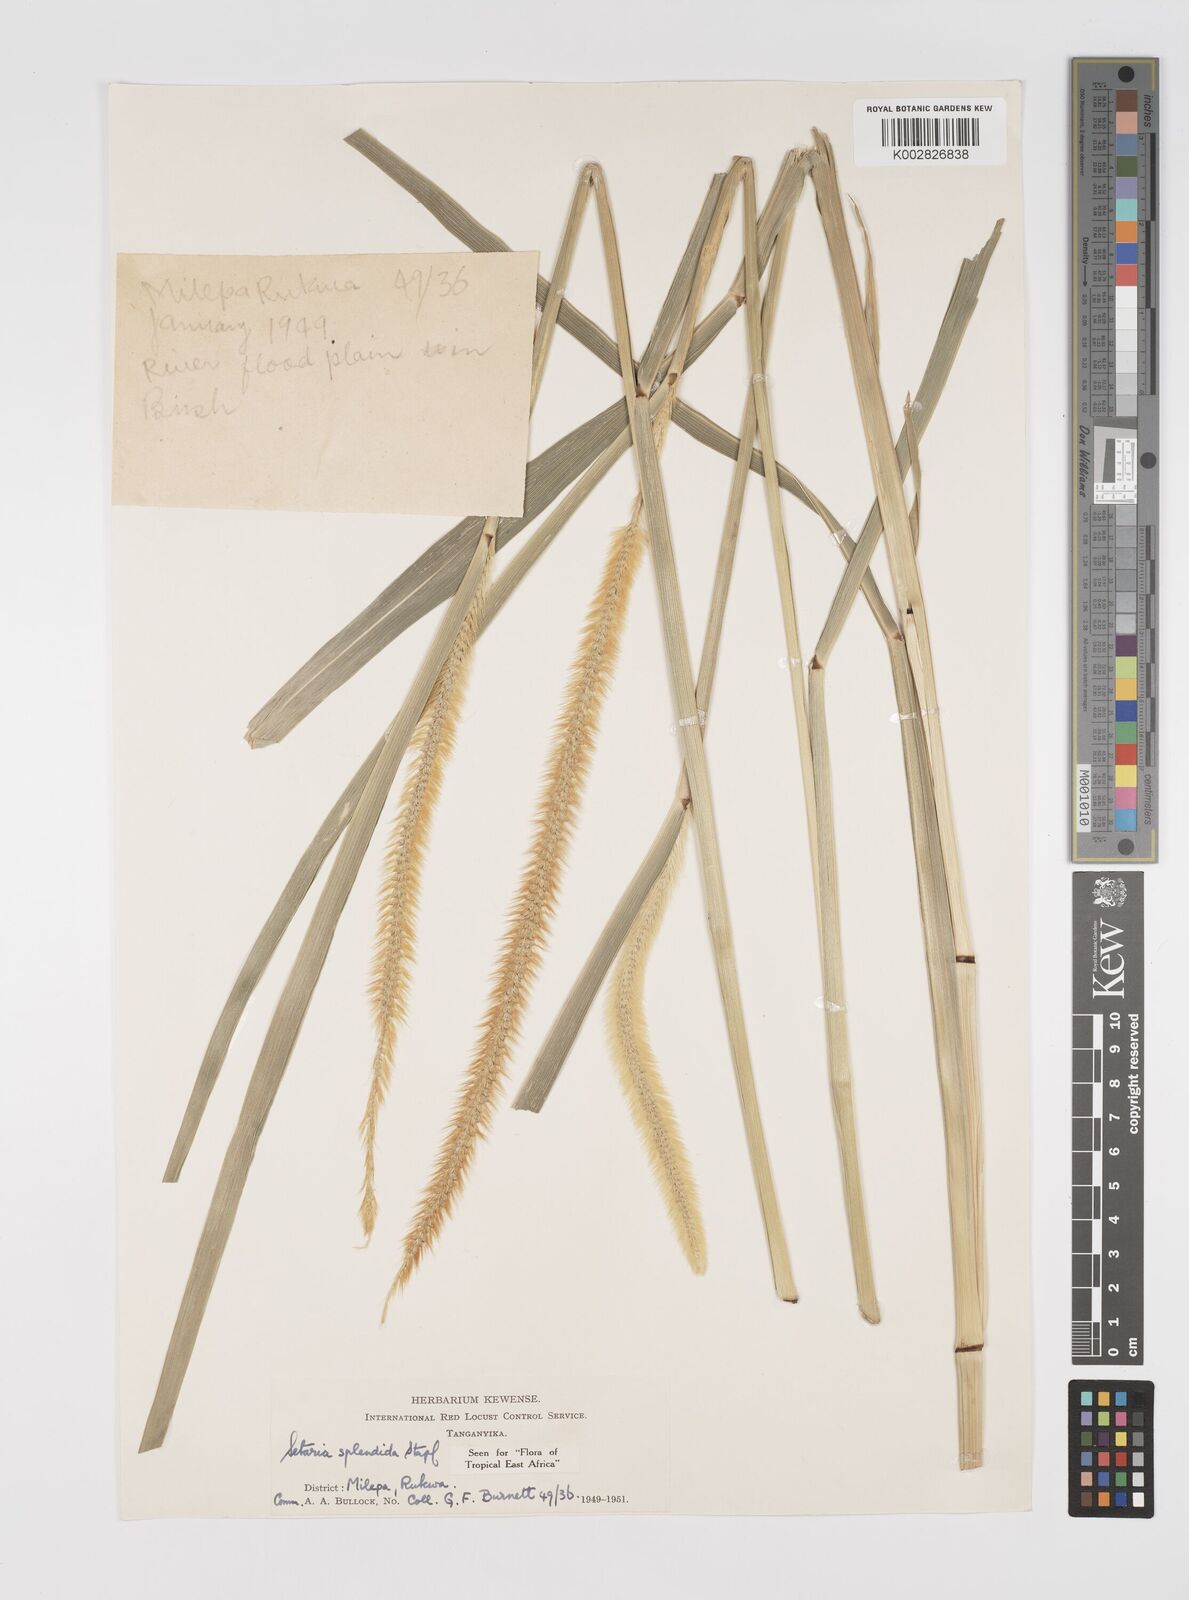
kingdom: Plantae
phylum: Tracheophyta
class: Liliopsida
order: Poales
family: Poaceae
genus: Setaria
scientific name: Setaria sphacelata
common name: African bristlegrass
